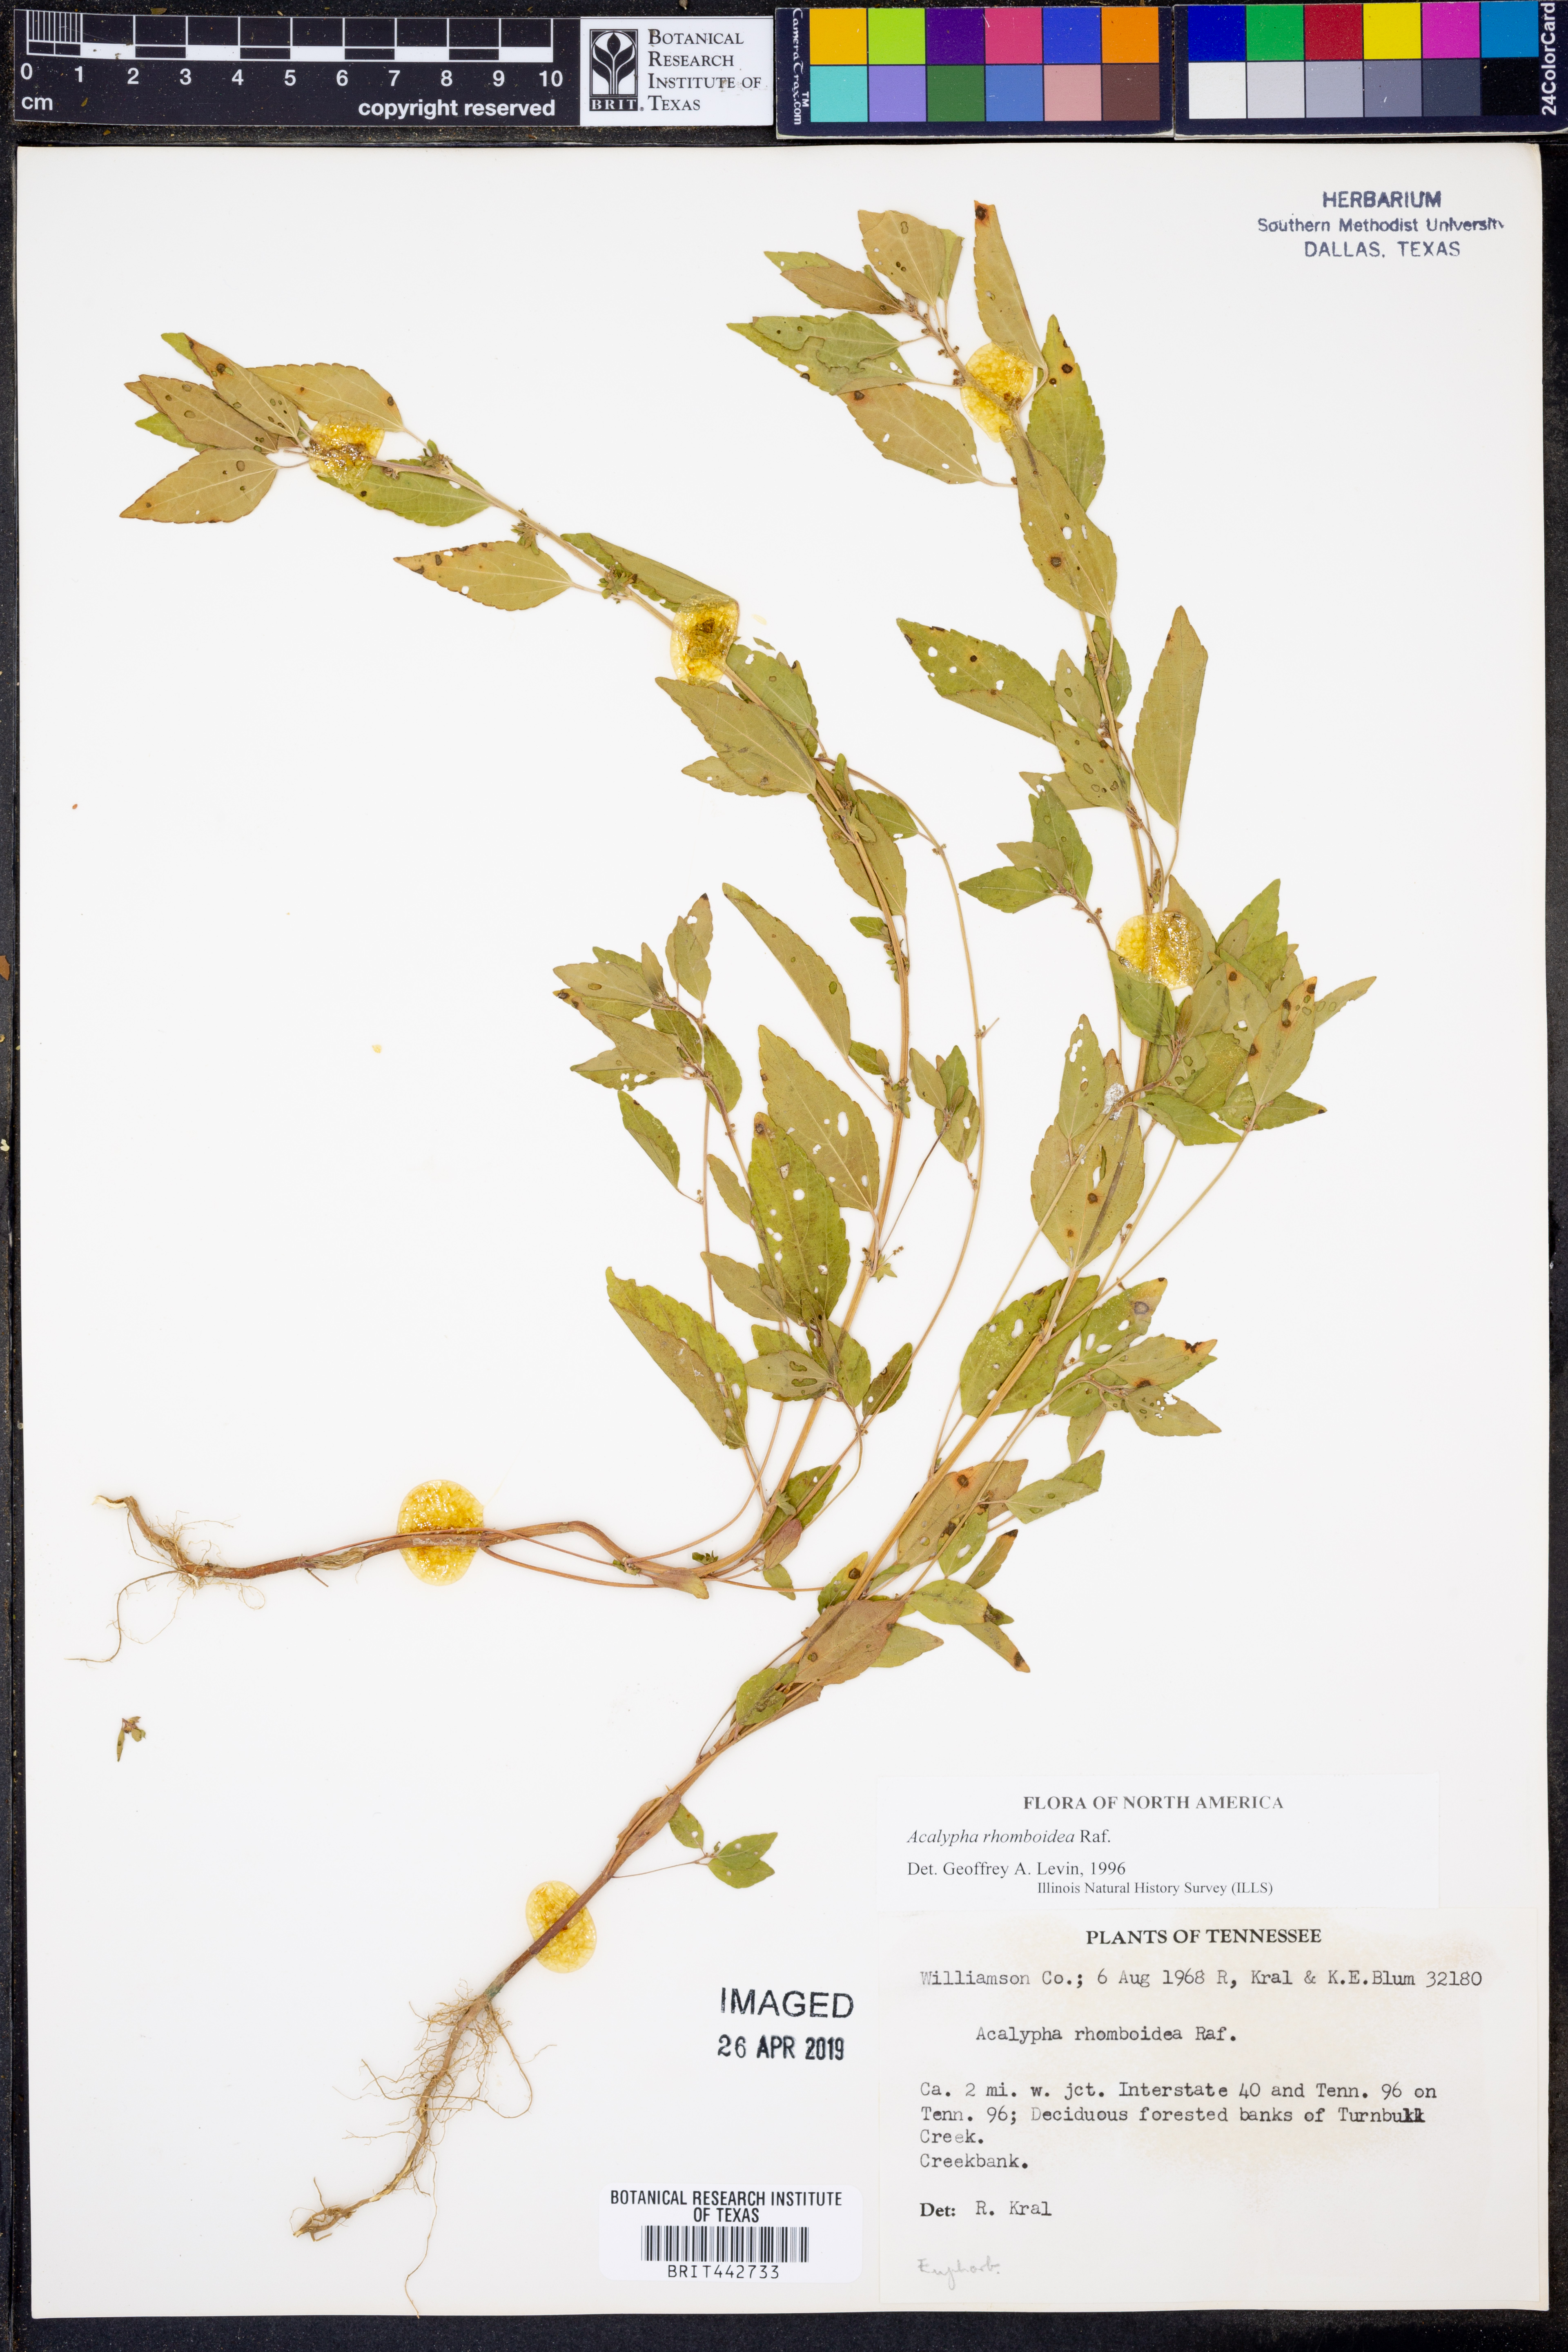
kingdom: Plantae
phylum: Tracheophyta
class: Magnoliopsida
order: Malpighiales
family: Euphorbiaceae
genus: Acalypha
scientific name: Acalypha rhomboidea
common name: Rhombic copperleaf
